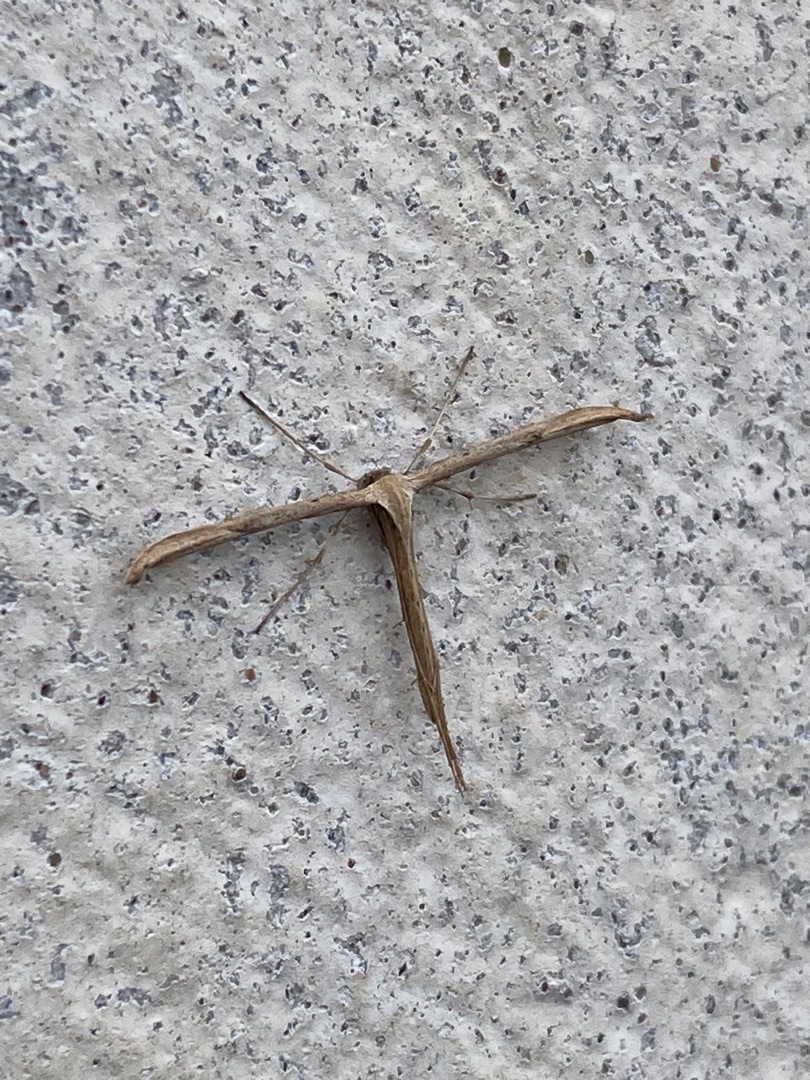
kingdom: Animalia
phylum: Arthropoda
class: Insecta
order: Lepidoptera
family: Pterophoridae
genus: Emmelina
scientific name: Emmelina monodactyla
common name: Snerlefjermøl
